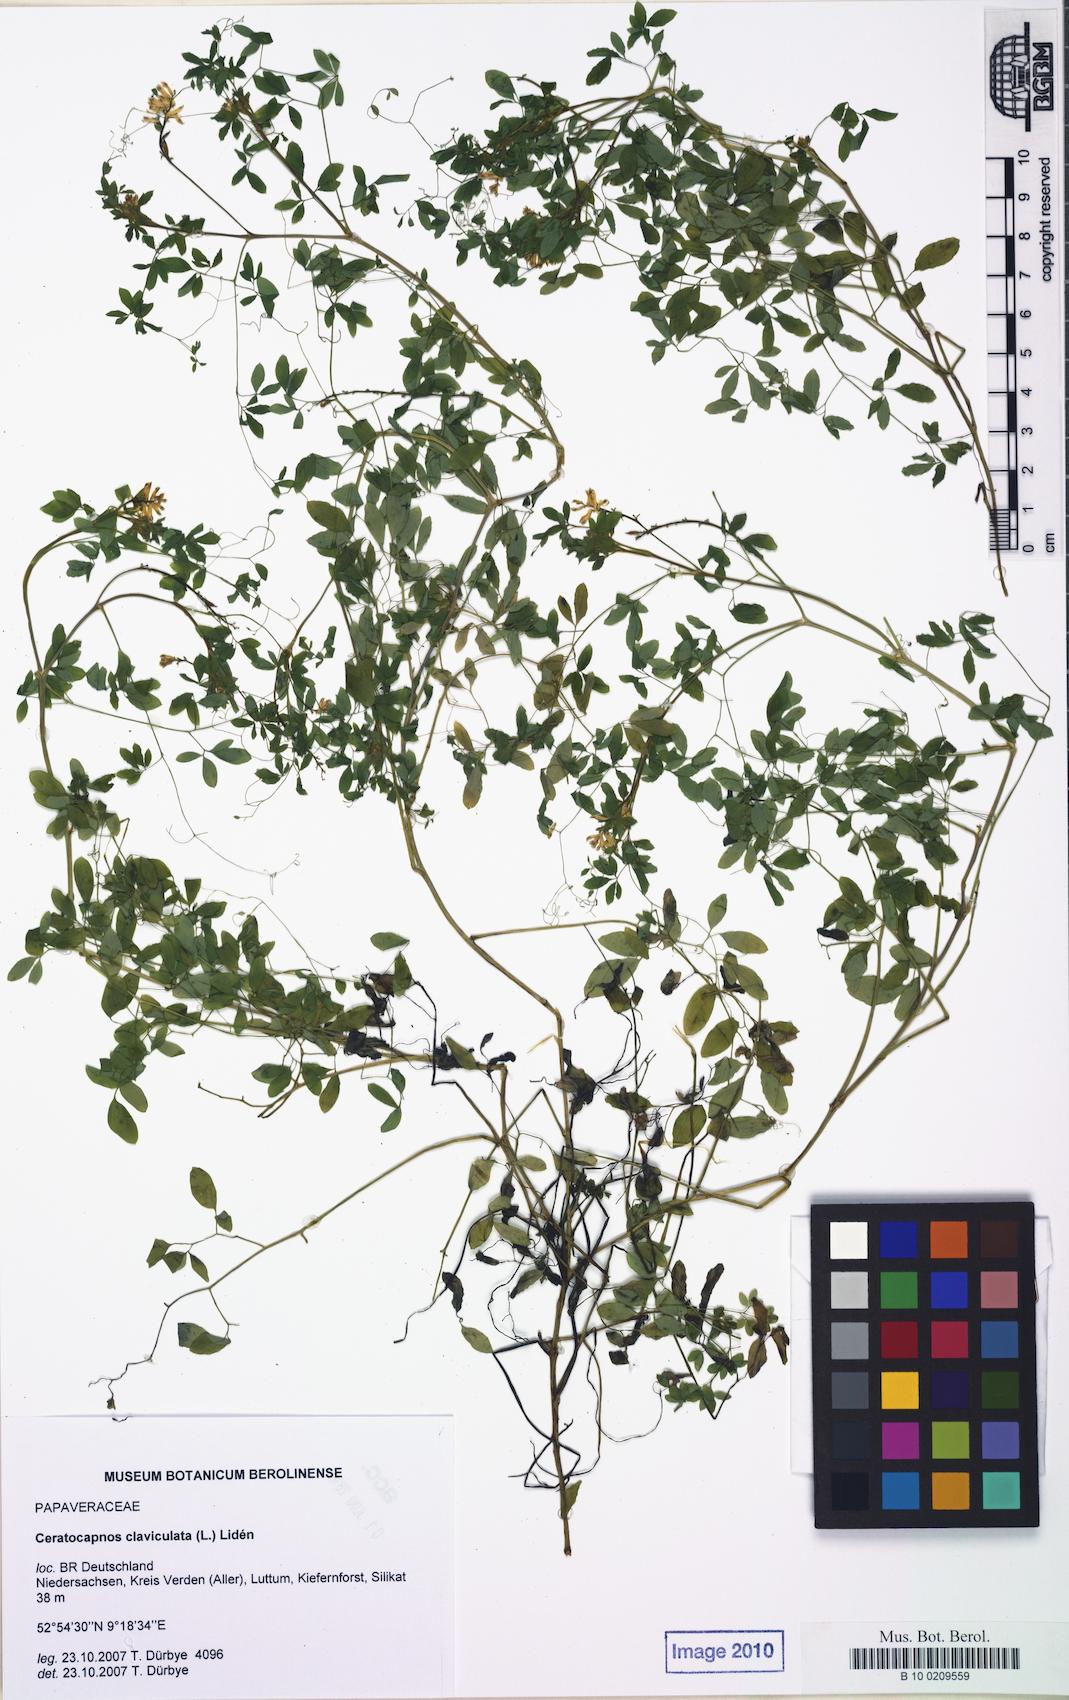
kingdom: Plantae
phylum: Tracheophyta
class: Magnoliopsida
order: Ranunculales
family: Papaveraceae
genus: Ceratocapnos
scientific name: Ceratocapnos claviculata
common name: Climbing corydalis
